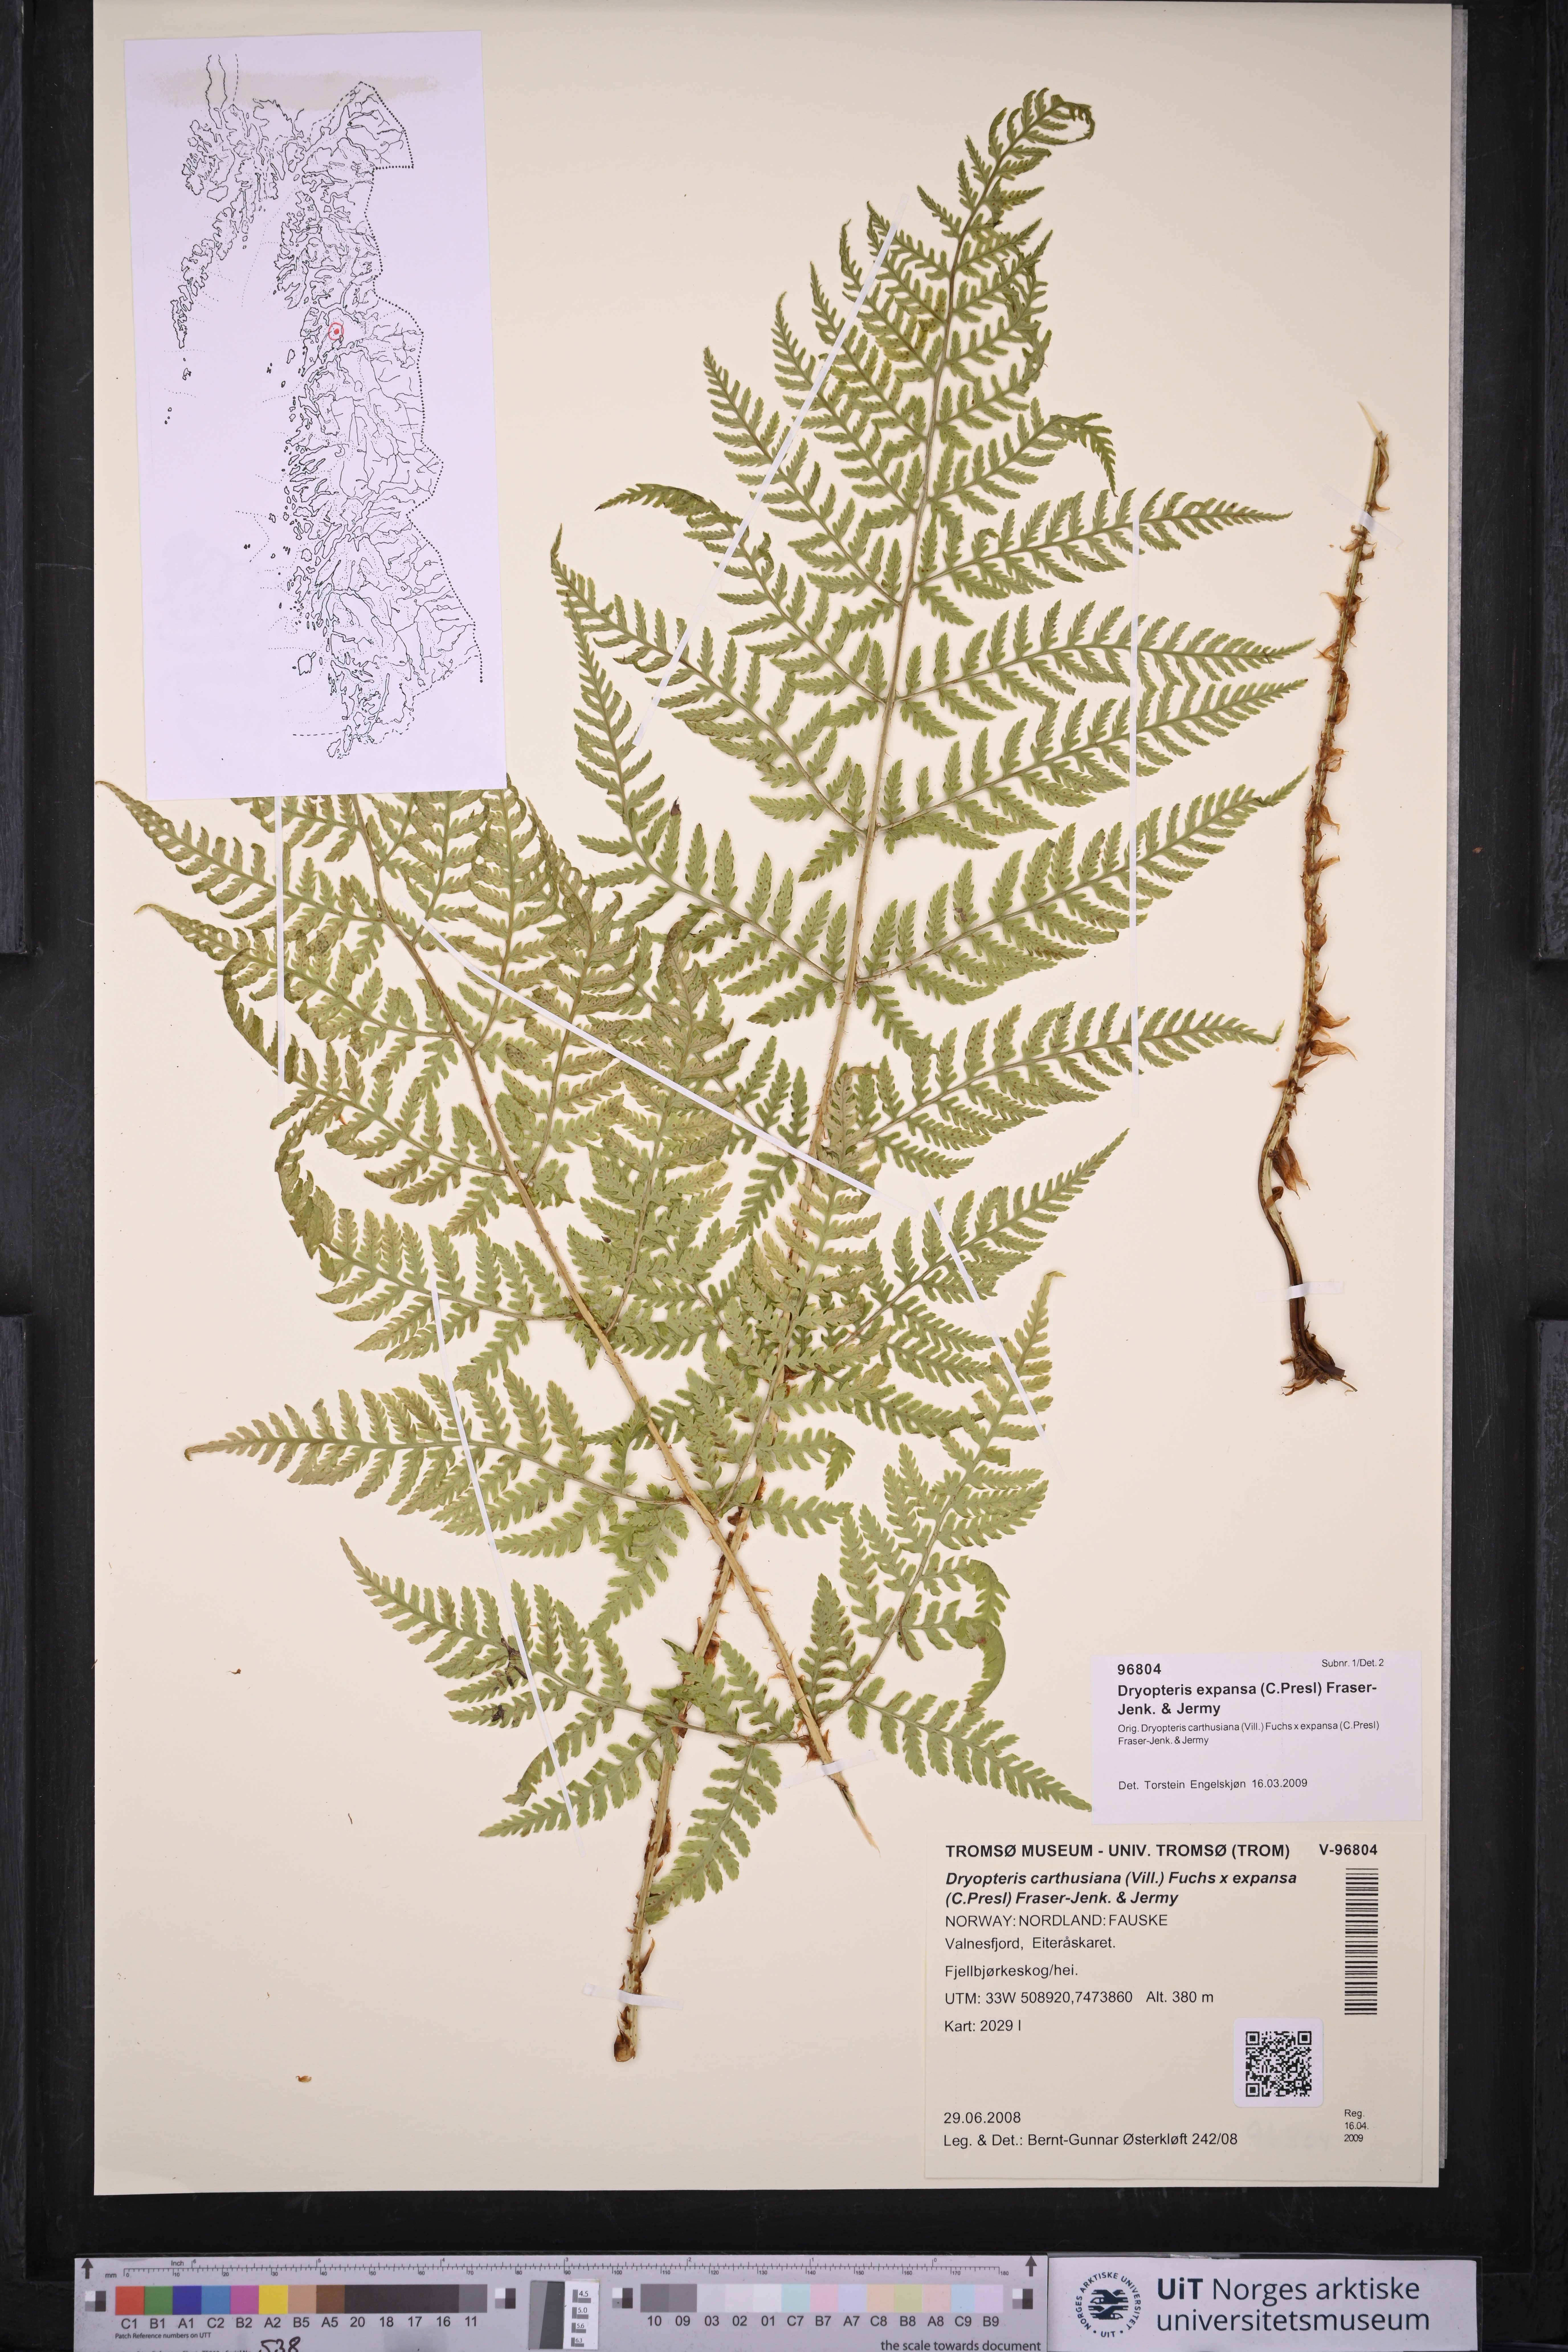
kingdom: Plantae
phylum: Tracheophyta
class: Polypodiopsida
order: Polypodiales
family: Dryopteridaceae
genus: Dryopteris
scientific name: Dryopteris expansa
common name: Northern buckler fern
